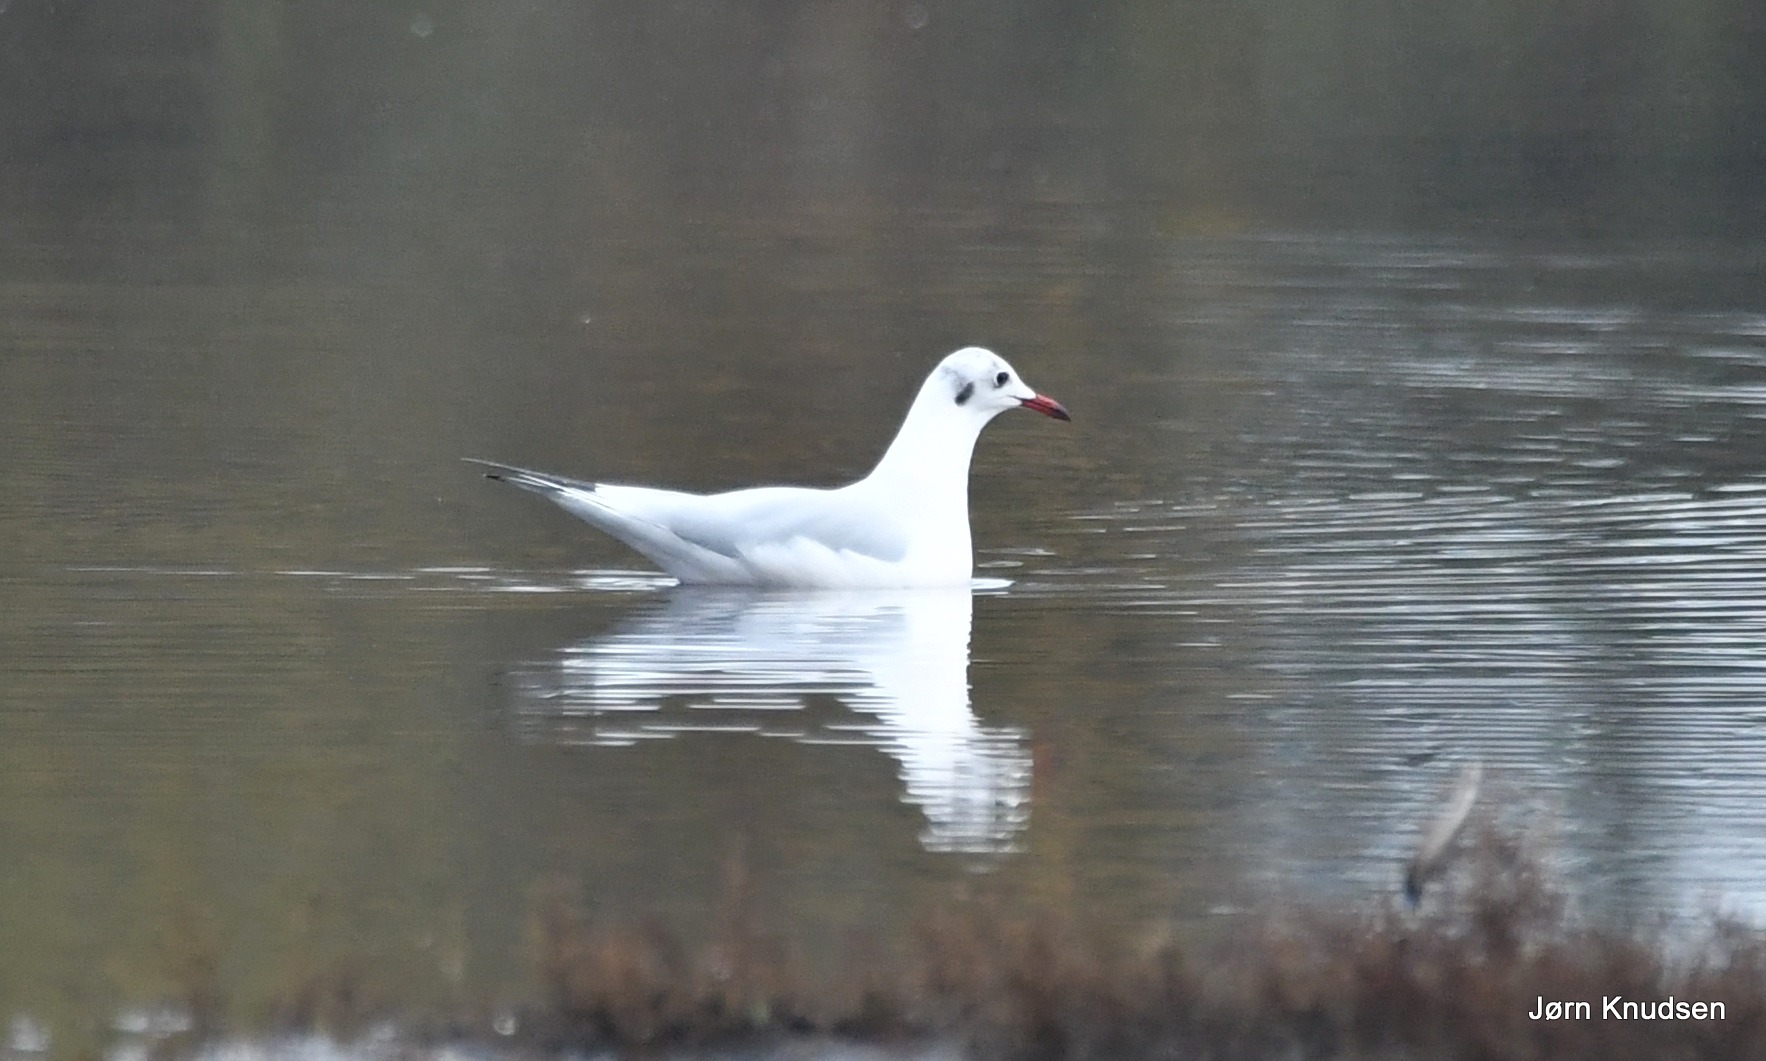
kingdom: Animalia
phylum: Chordata
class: Aves
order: Charadriiformes
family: Laridae
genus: Chroicocephalus
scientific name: Chroicocephalus ridibundus
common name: Hættemåge
